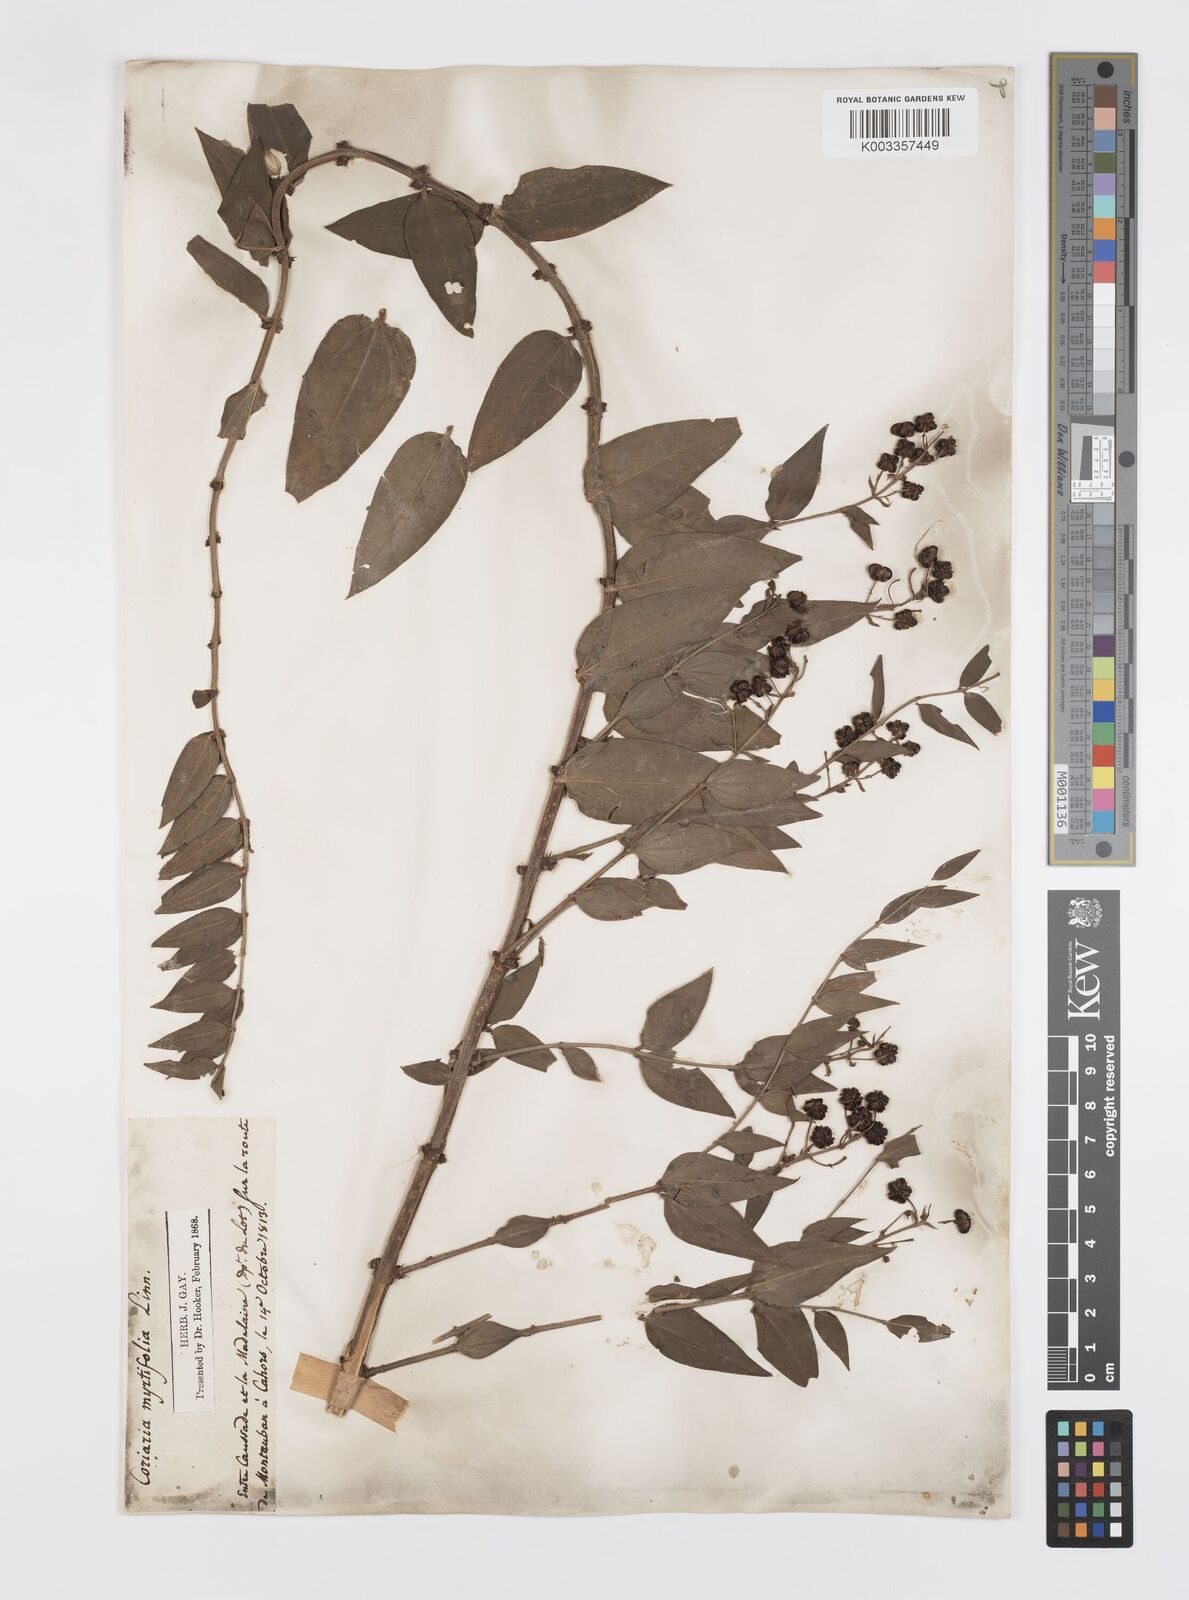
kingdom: Plantae
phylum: Tracheophyta
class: Magnoliopsida
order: Cucurbitales
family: Coriariaceae
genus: Coriaria
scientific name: Coriaria myrtifolia
